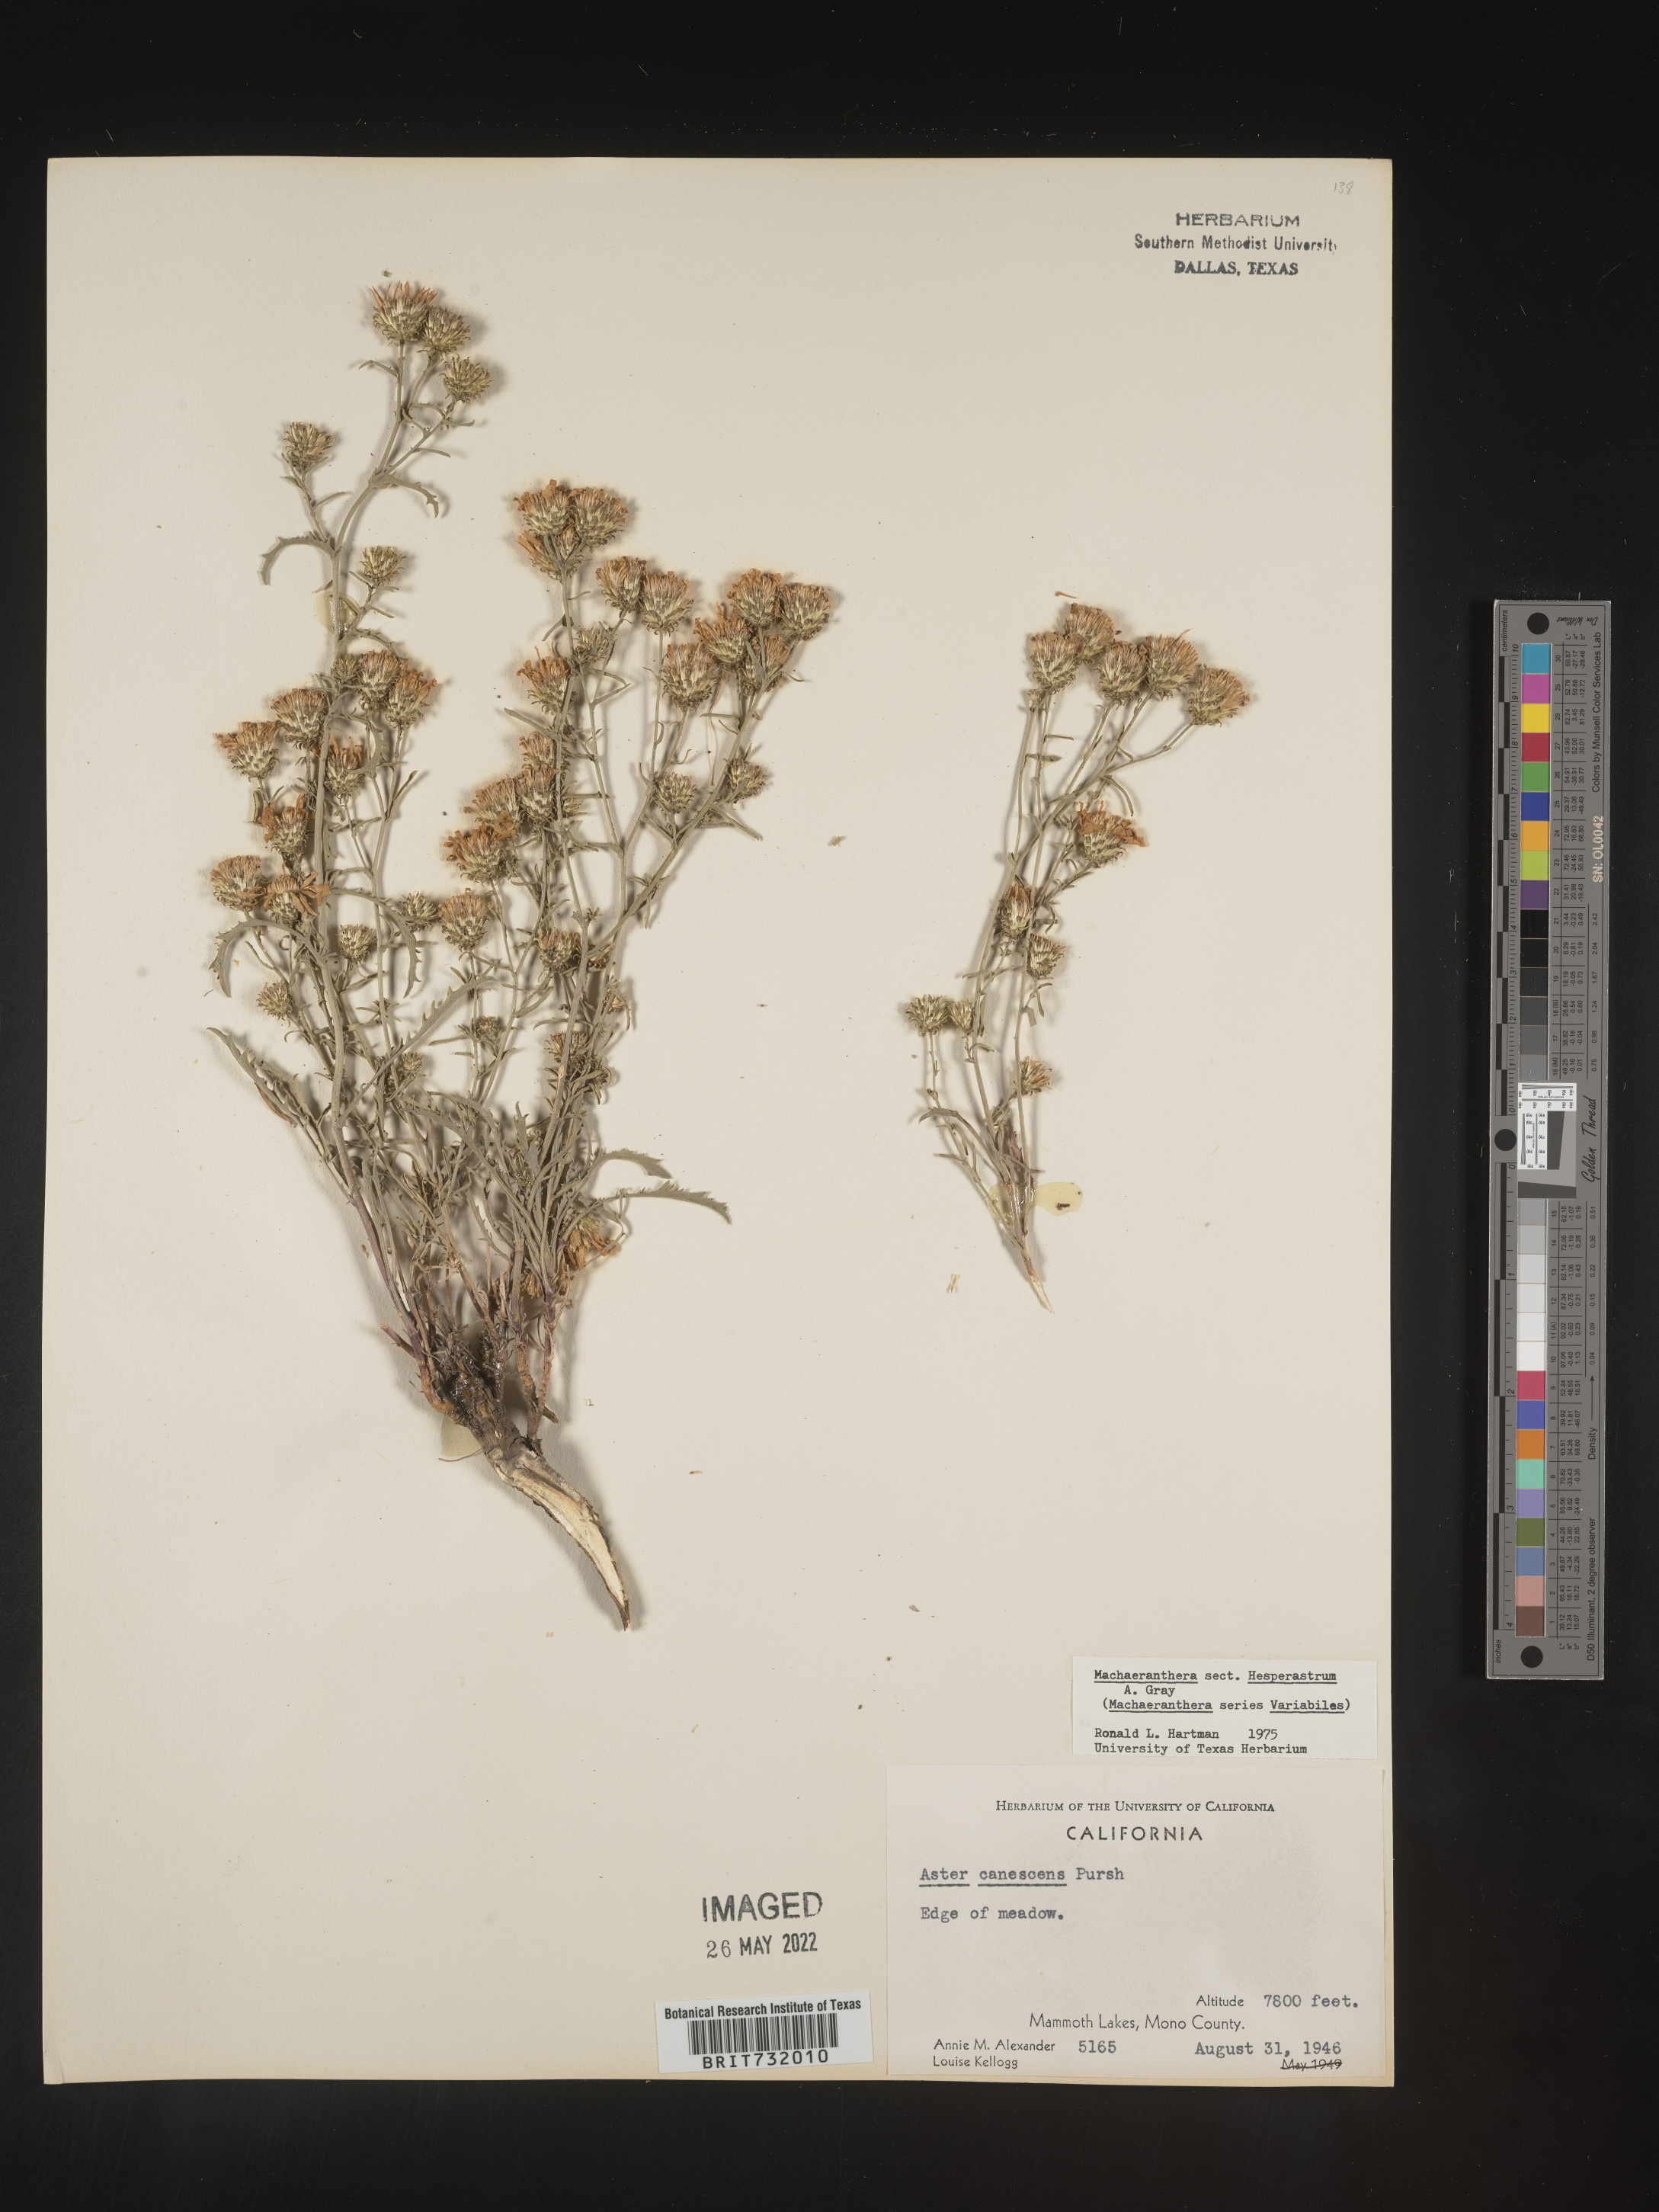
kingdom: Plantae
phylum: Tracheophyta
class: Magnoliopsida
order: Asterales
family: Asteraceae
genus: Machaeranthera
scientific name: Machaeranthera
